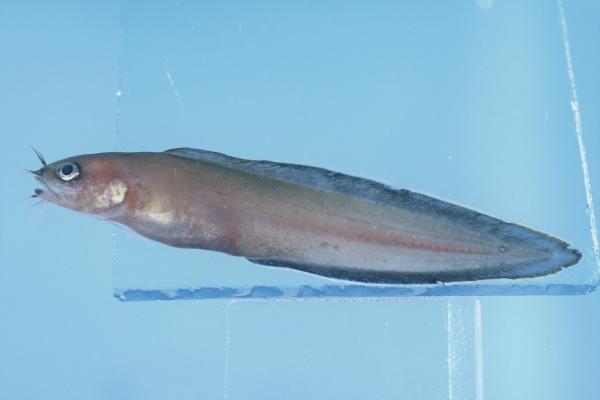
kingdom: Animalia
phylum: Chordata
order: Ophidiiformes
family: Ophidiidae
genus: Brotula
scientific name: Brotula multibarbata
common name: Goatsbeard brotula
